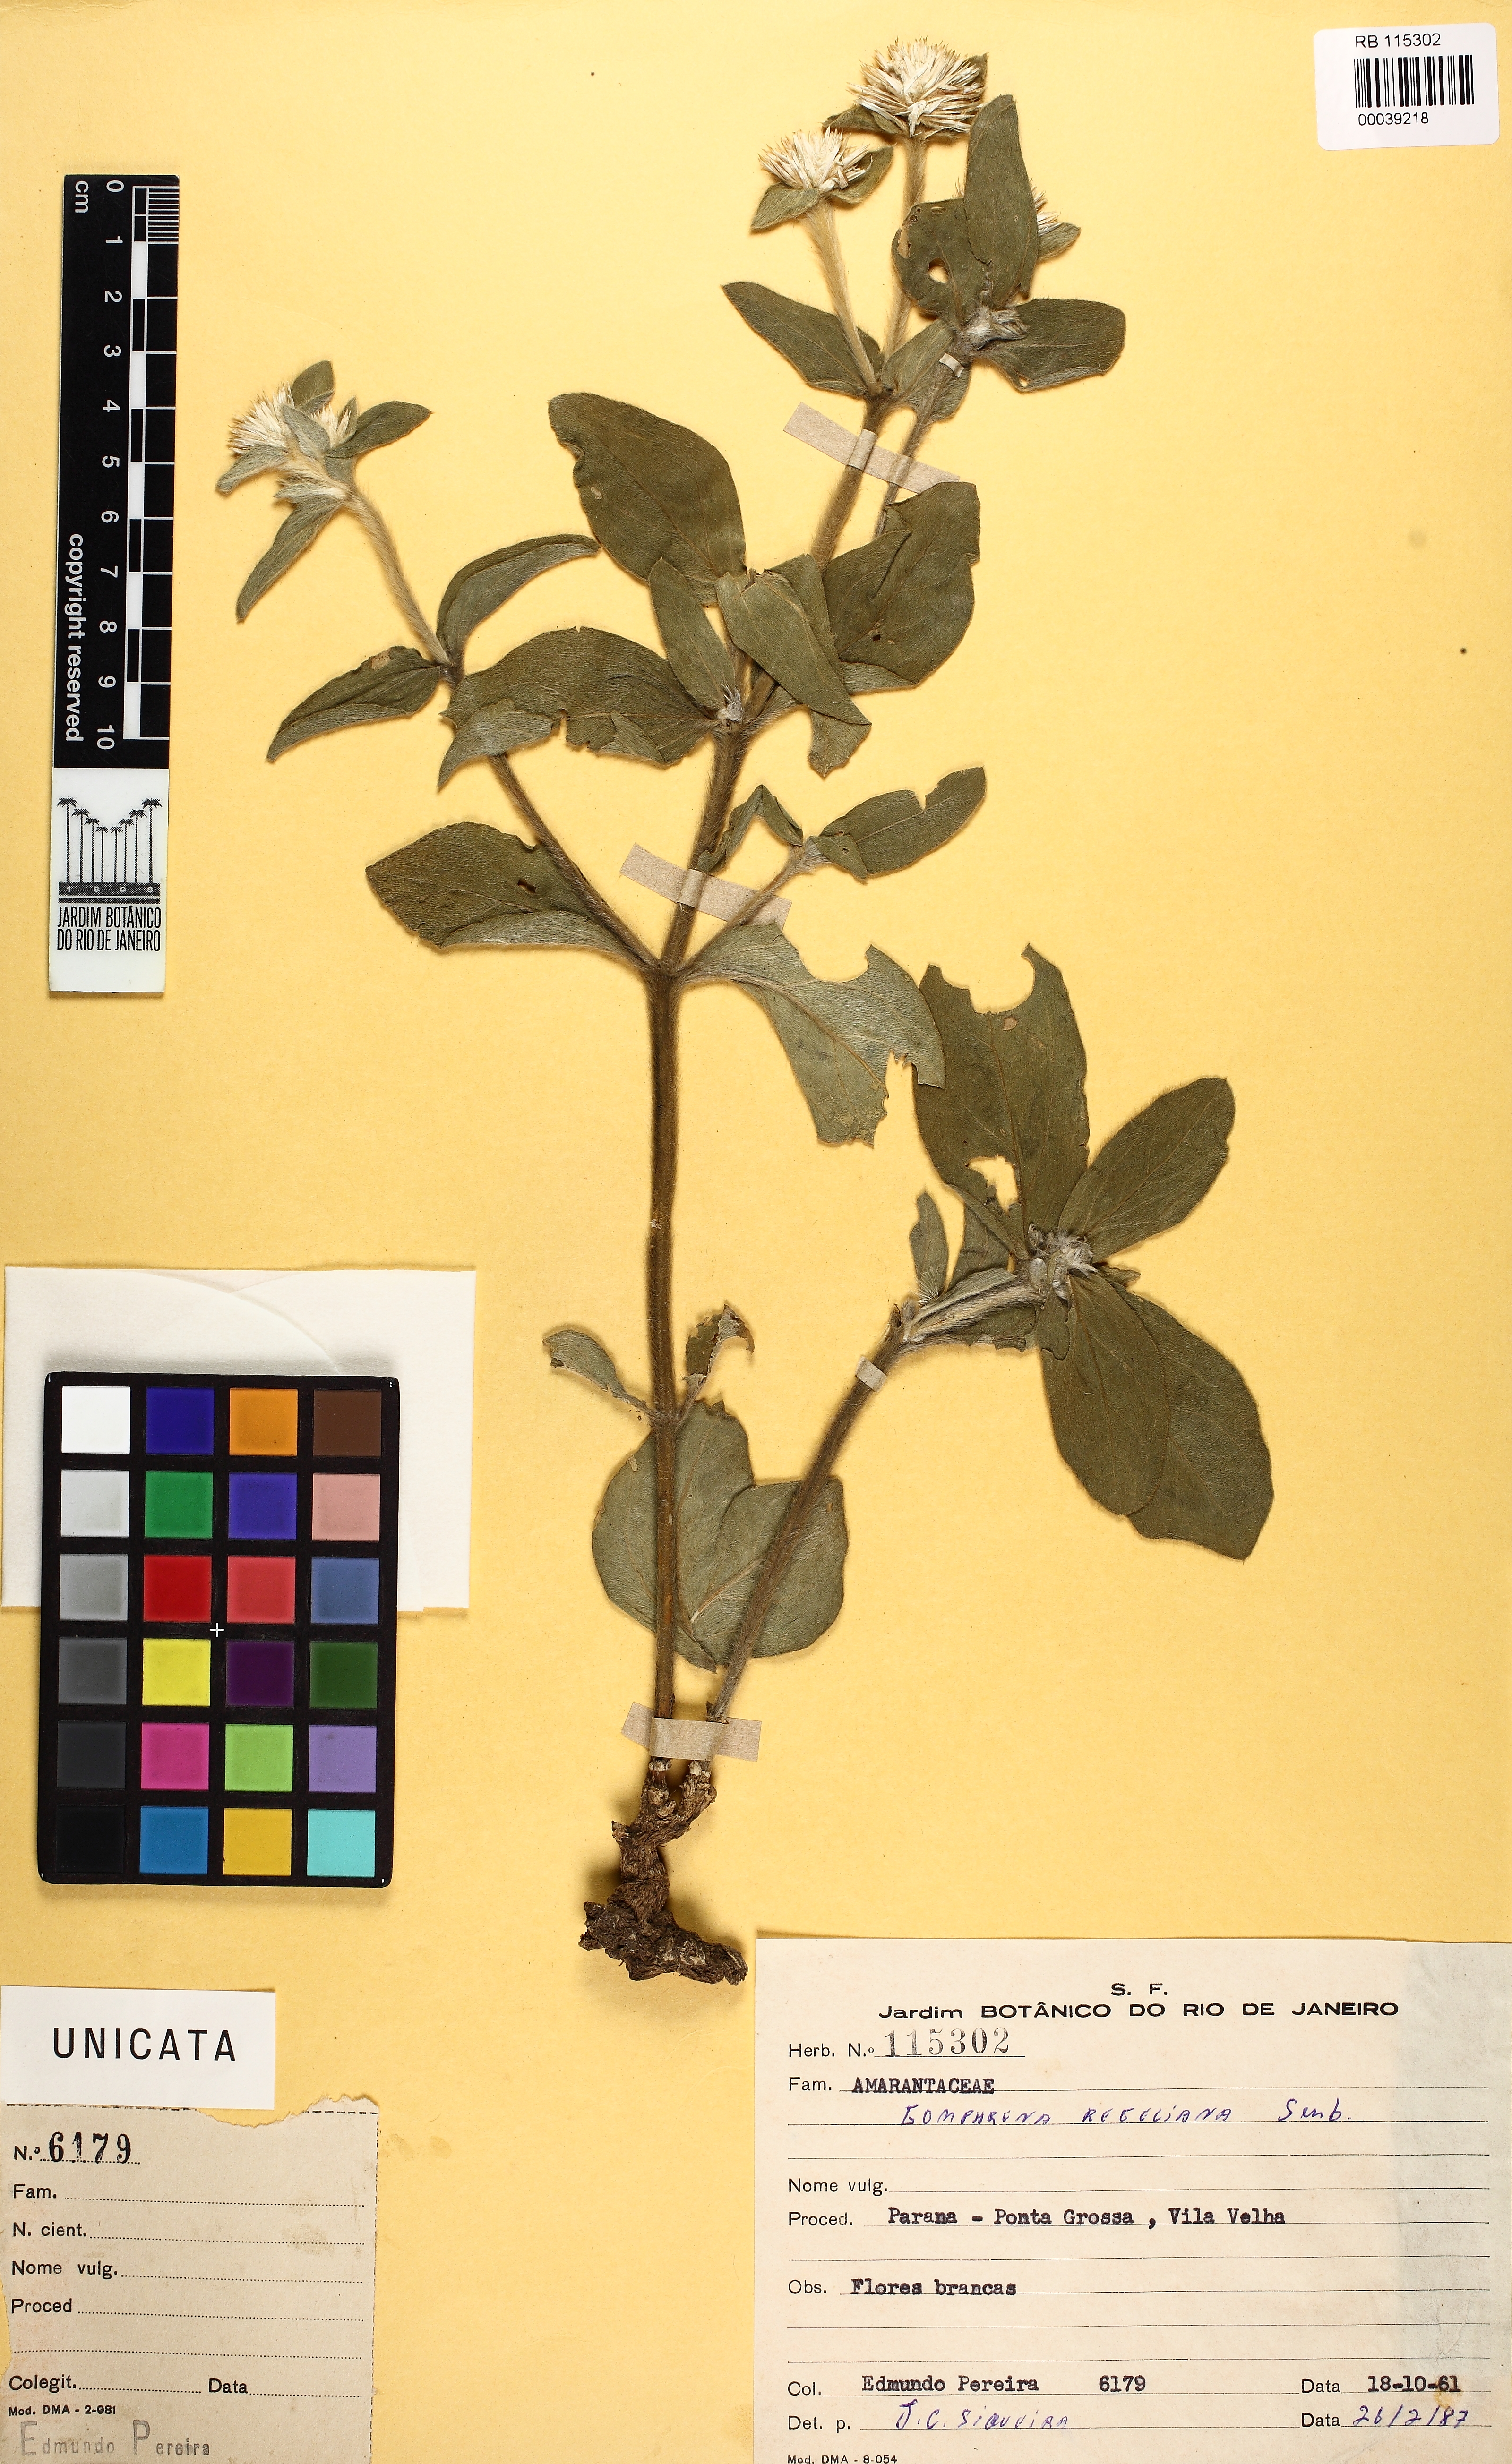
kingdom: Plantae
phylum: Tracheophyta
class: Magnoliopsida
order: Caryophyllales
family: Amaranthaceae
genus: Gomphrena
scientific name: Gomphrena
